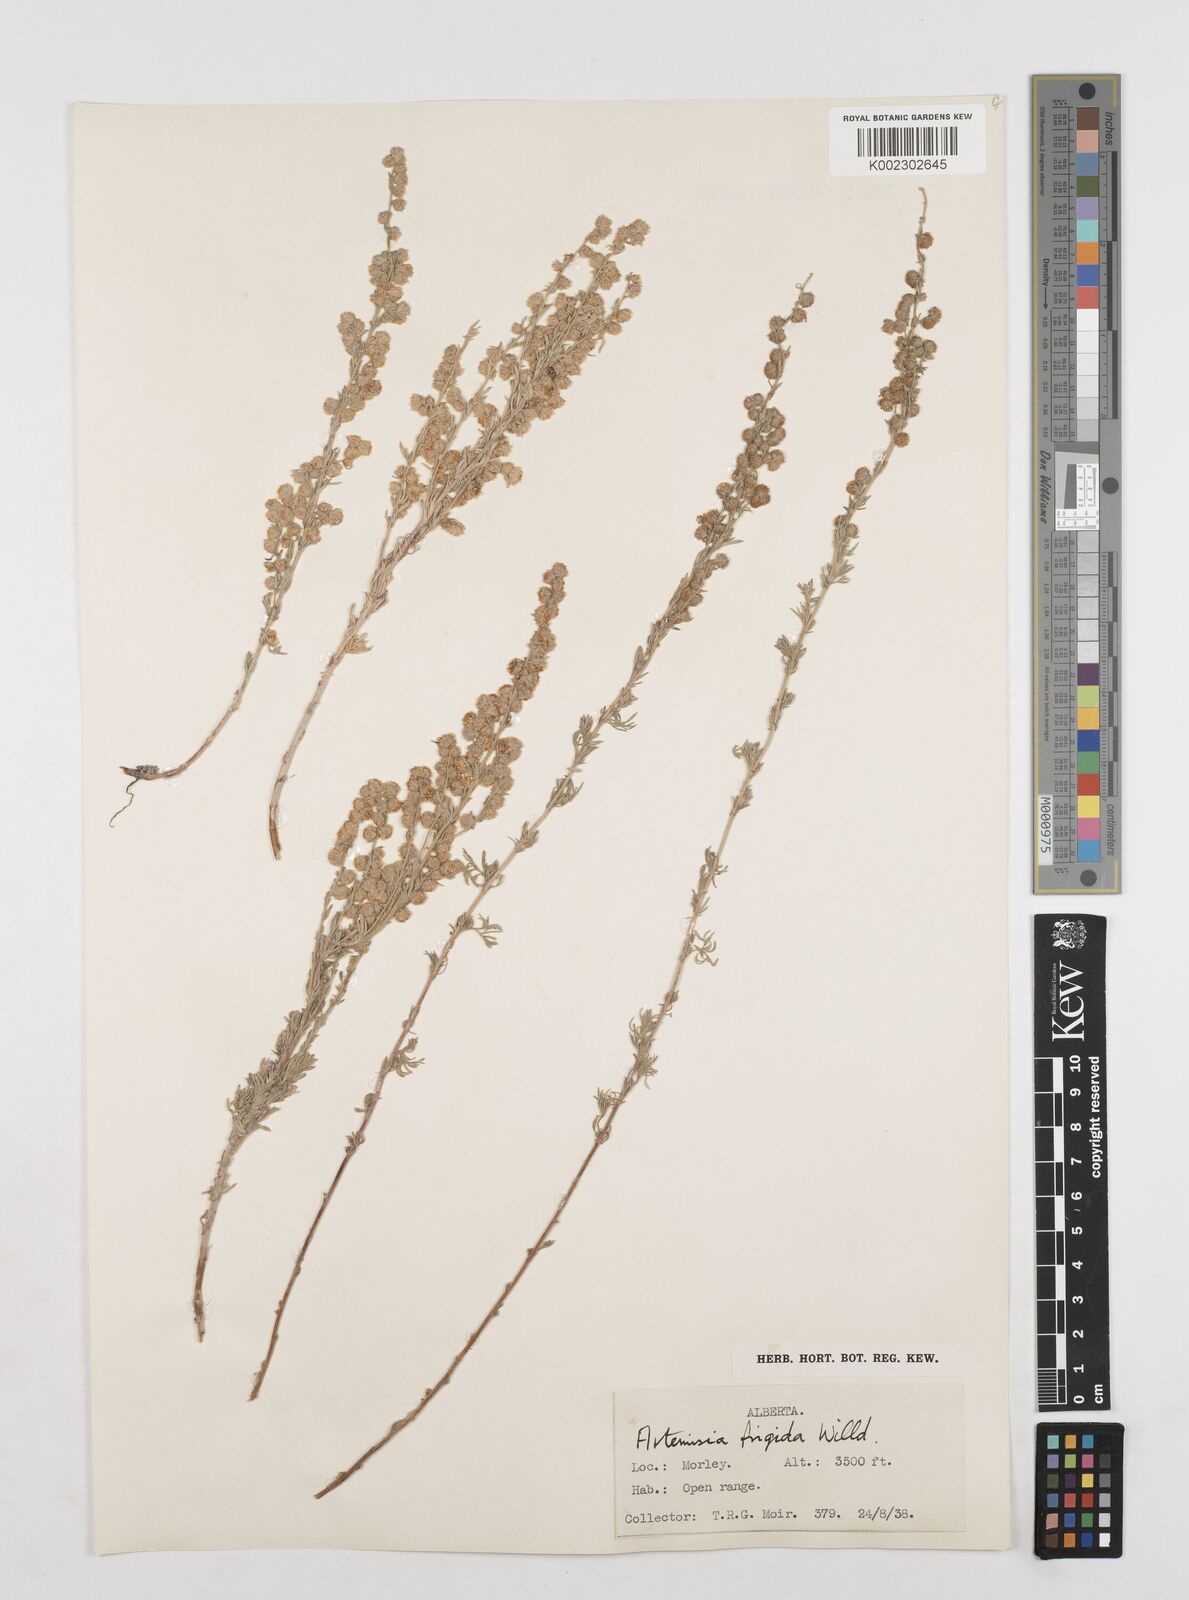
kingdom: Plantae
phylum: Tracheophyta
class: Magnoliopsida
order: Asterales
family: Asteraceae
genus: Artemisia
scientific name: Artemisia frigida
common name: Prairie sagewort
